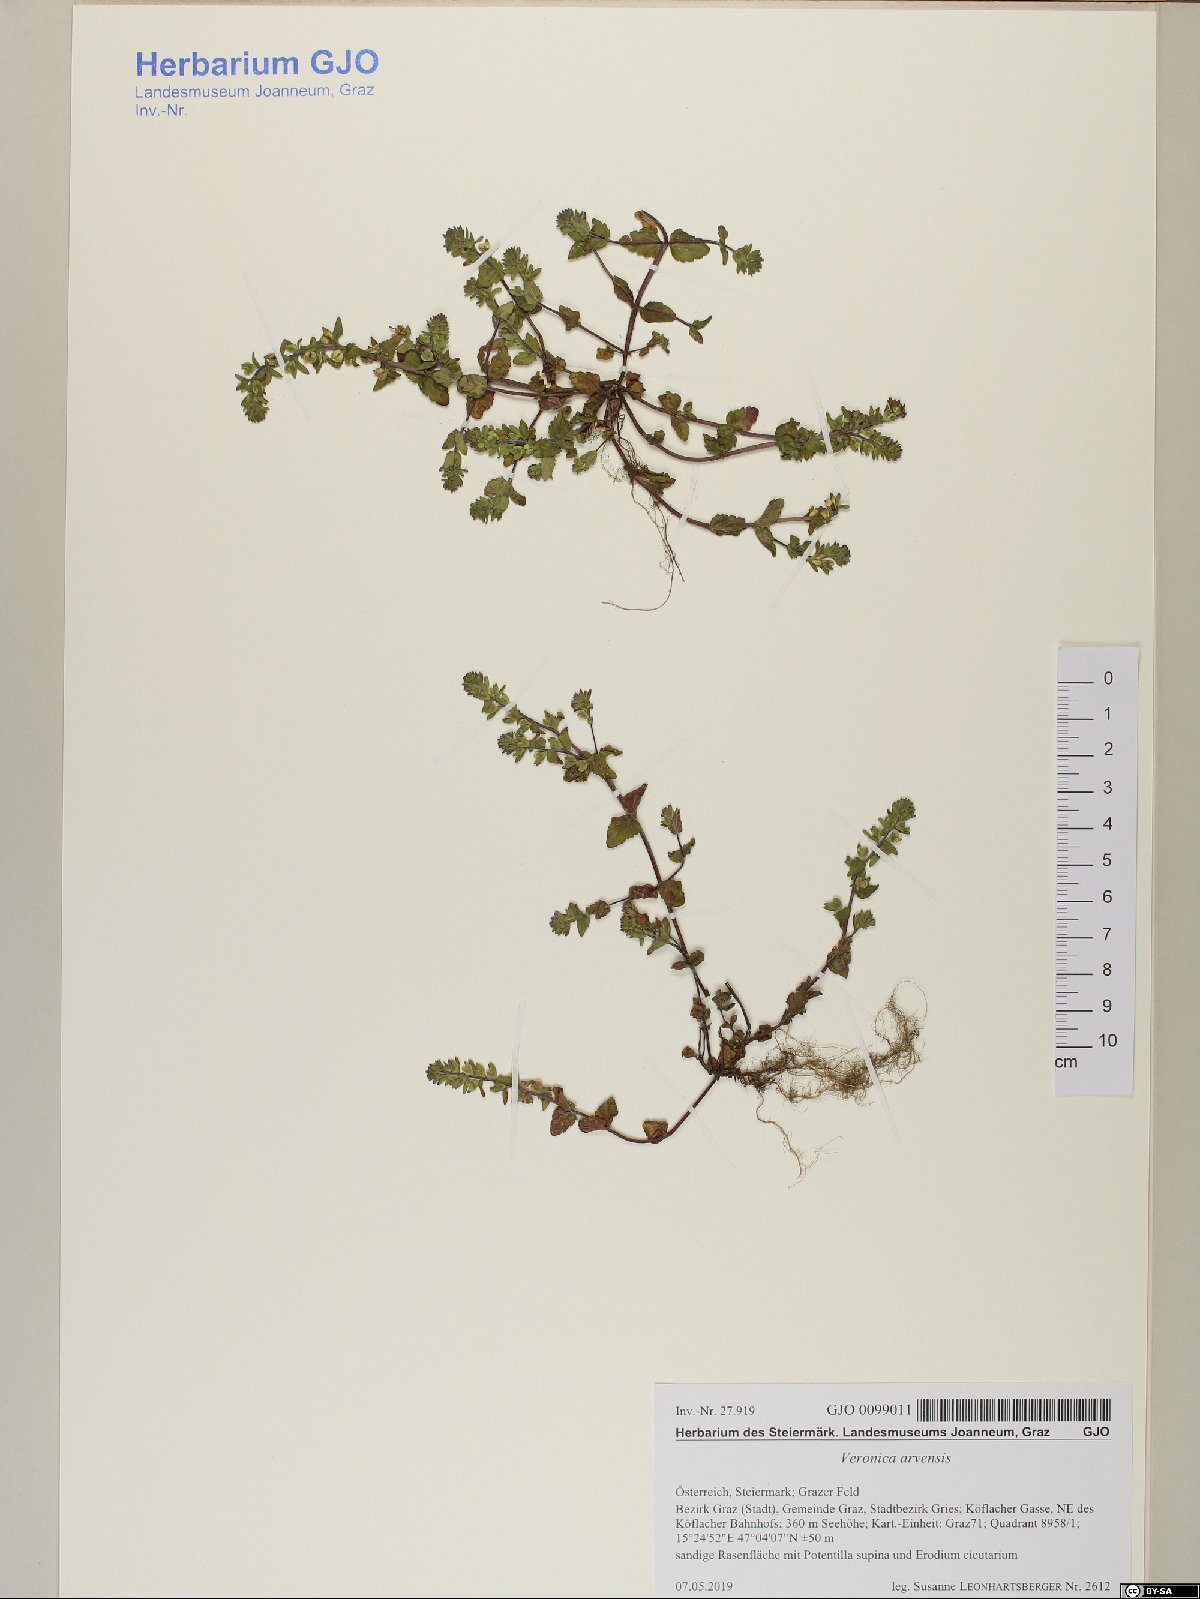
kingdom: Plantae
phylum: Tracheophyta
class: Magnoliopsida
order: Lamiales
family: Plantaginaceae
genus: Veronica
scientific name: Veronica arvensis
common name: Corn speedwell
